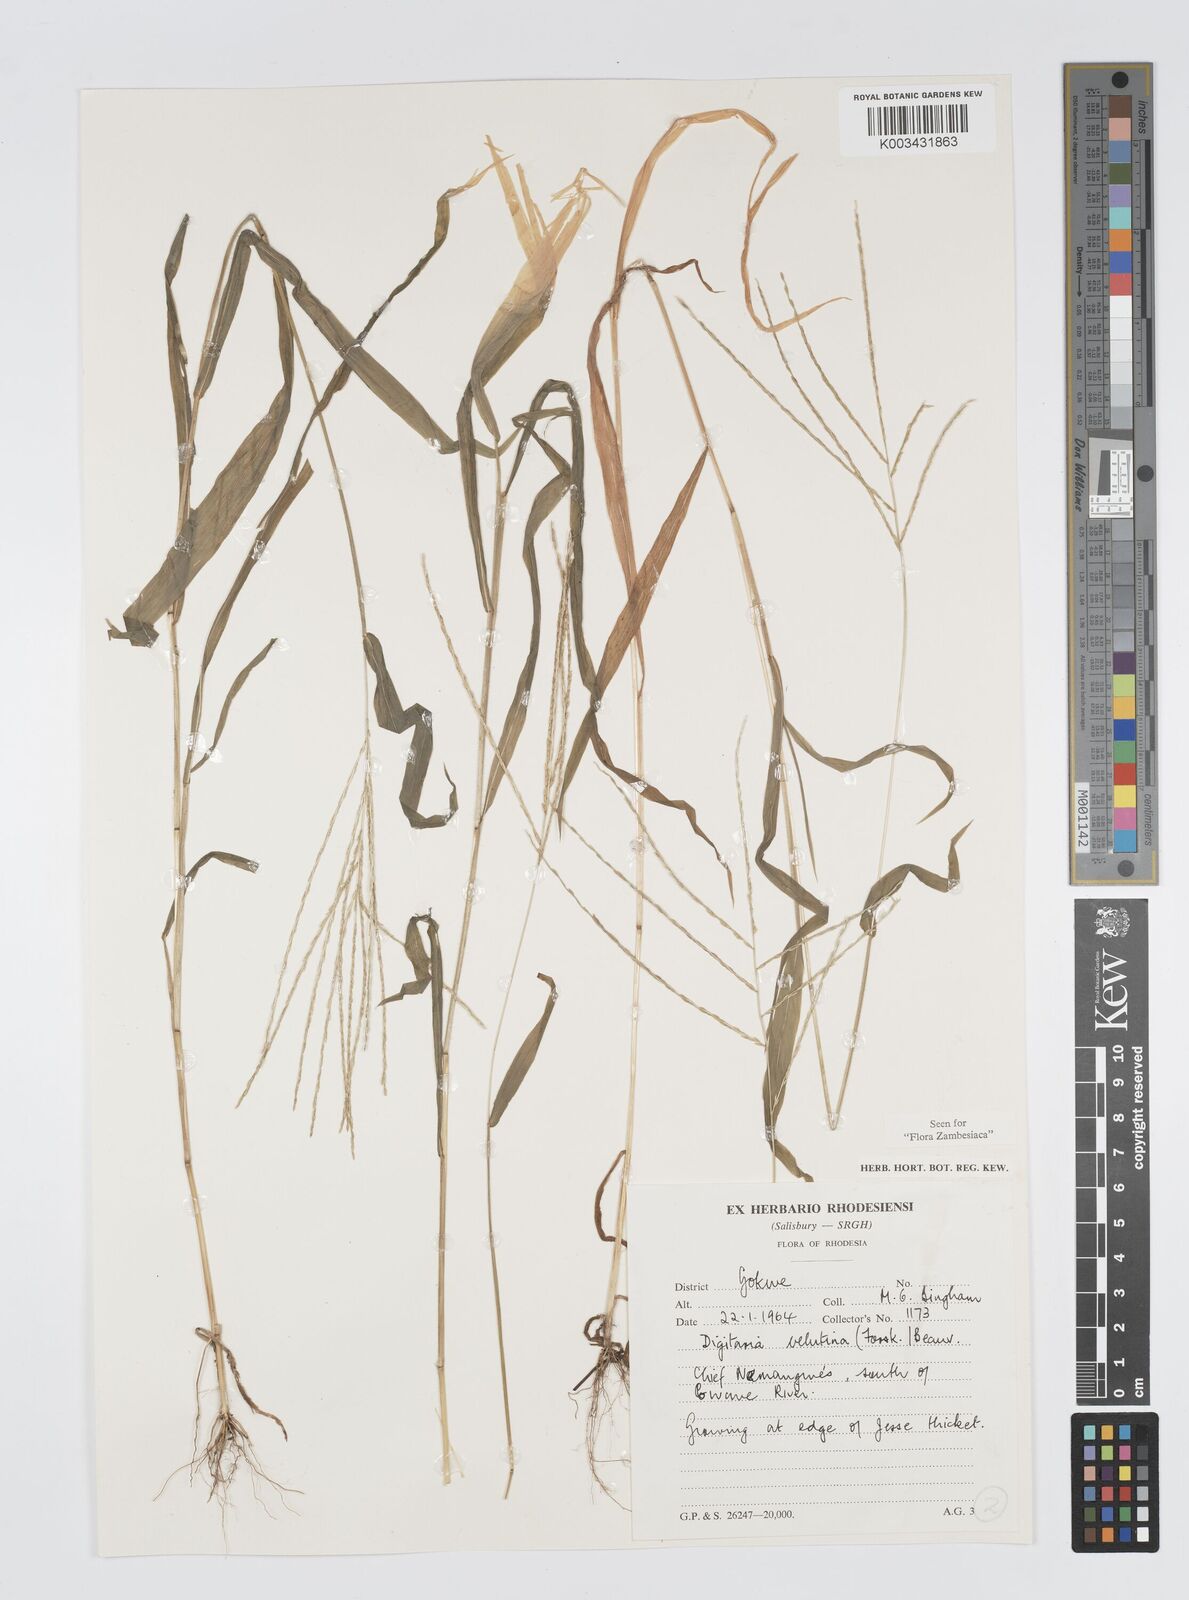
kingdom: Plantae
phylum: Tracheophyta
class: Liliopsida
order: Poales
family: Poaceae
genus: Digitaria
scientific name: Digitaria velutina
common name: Long-plume finger grass
